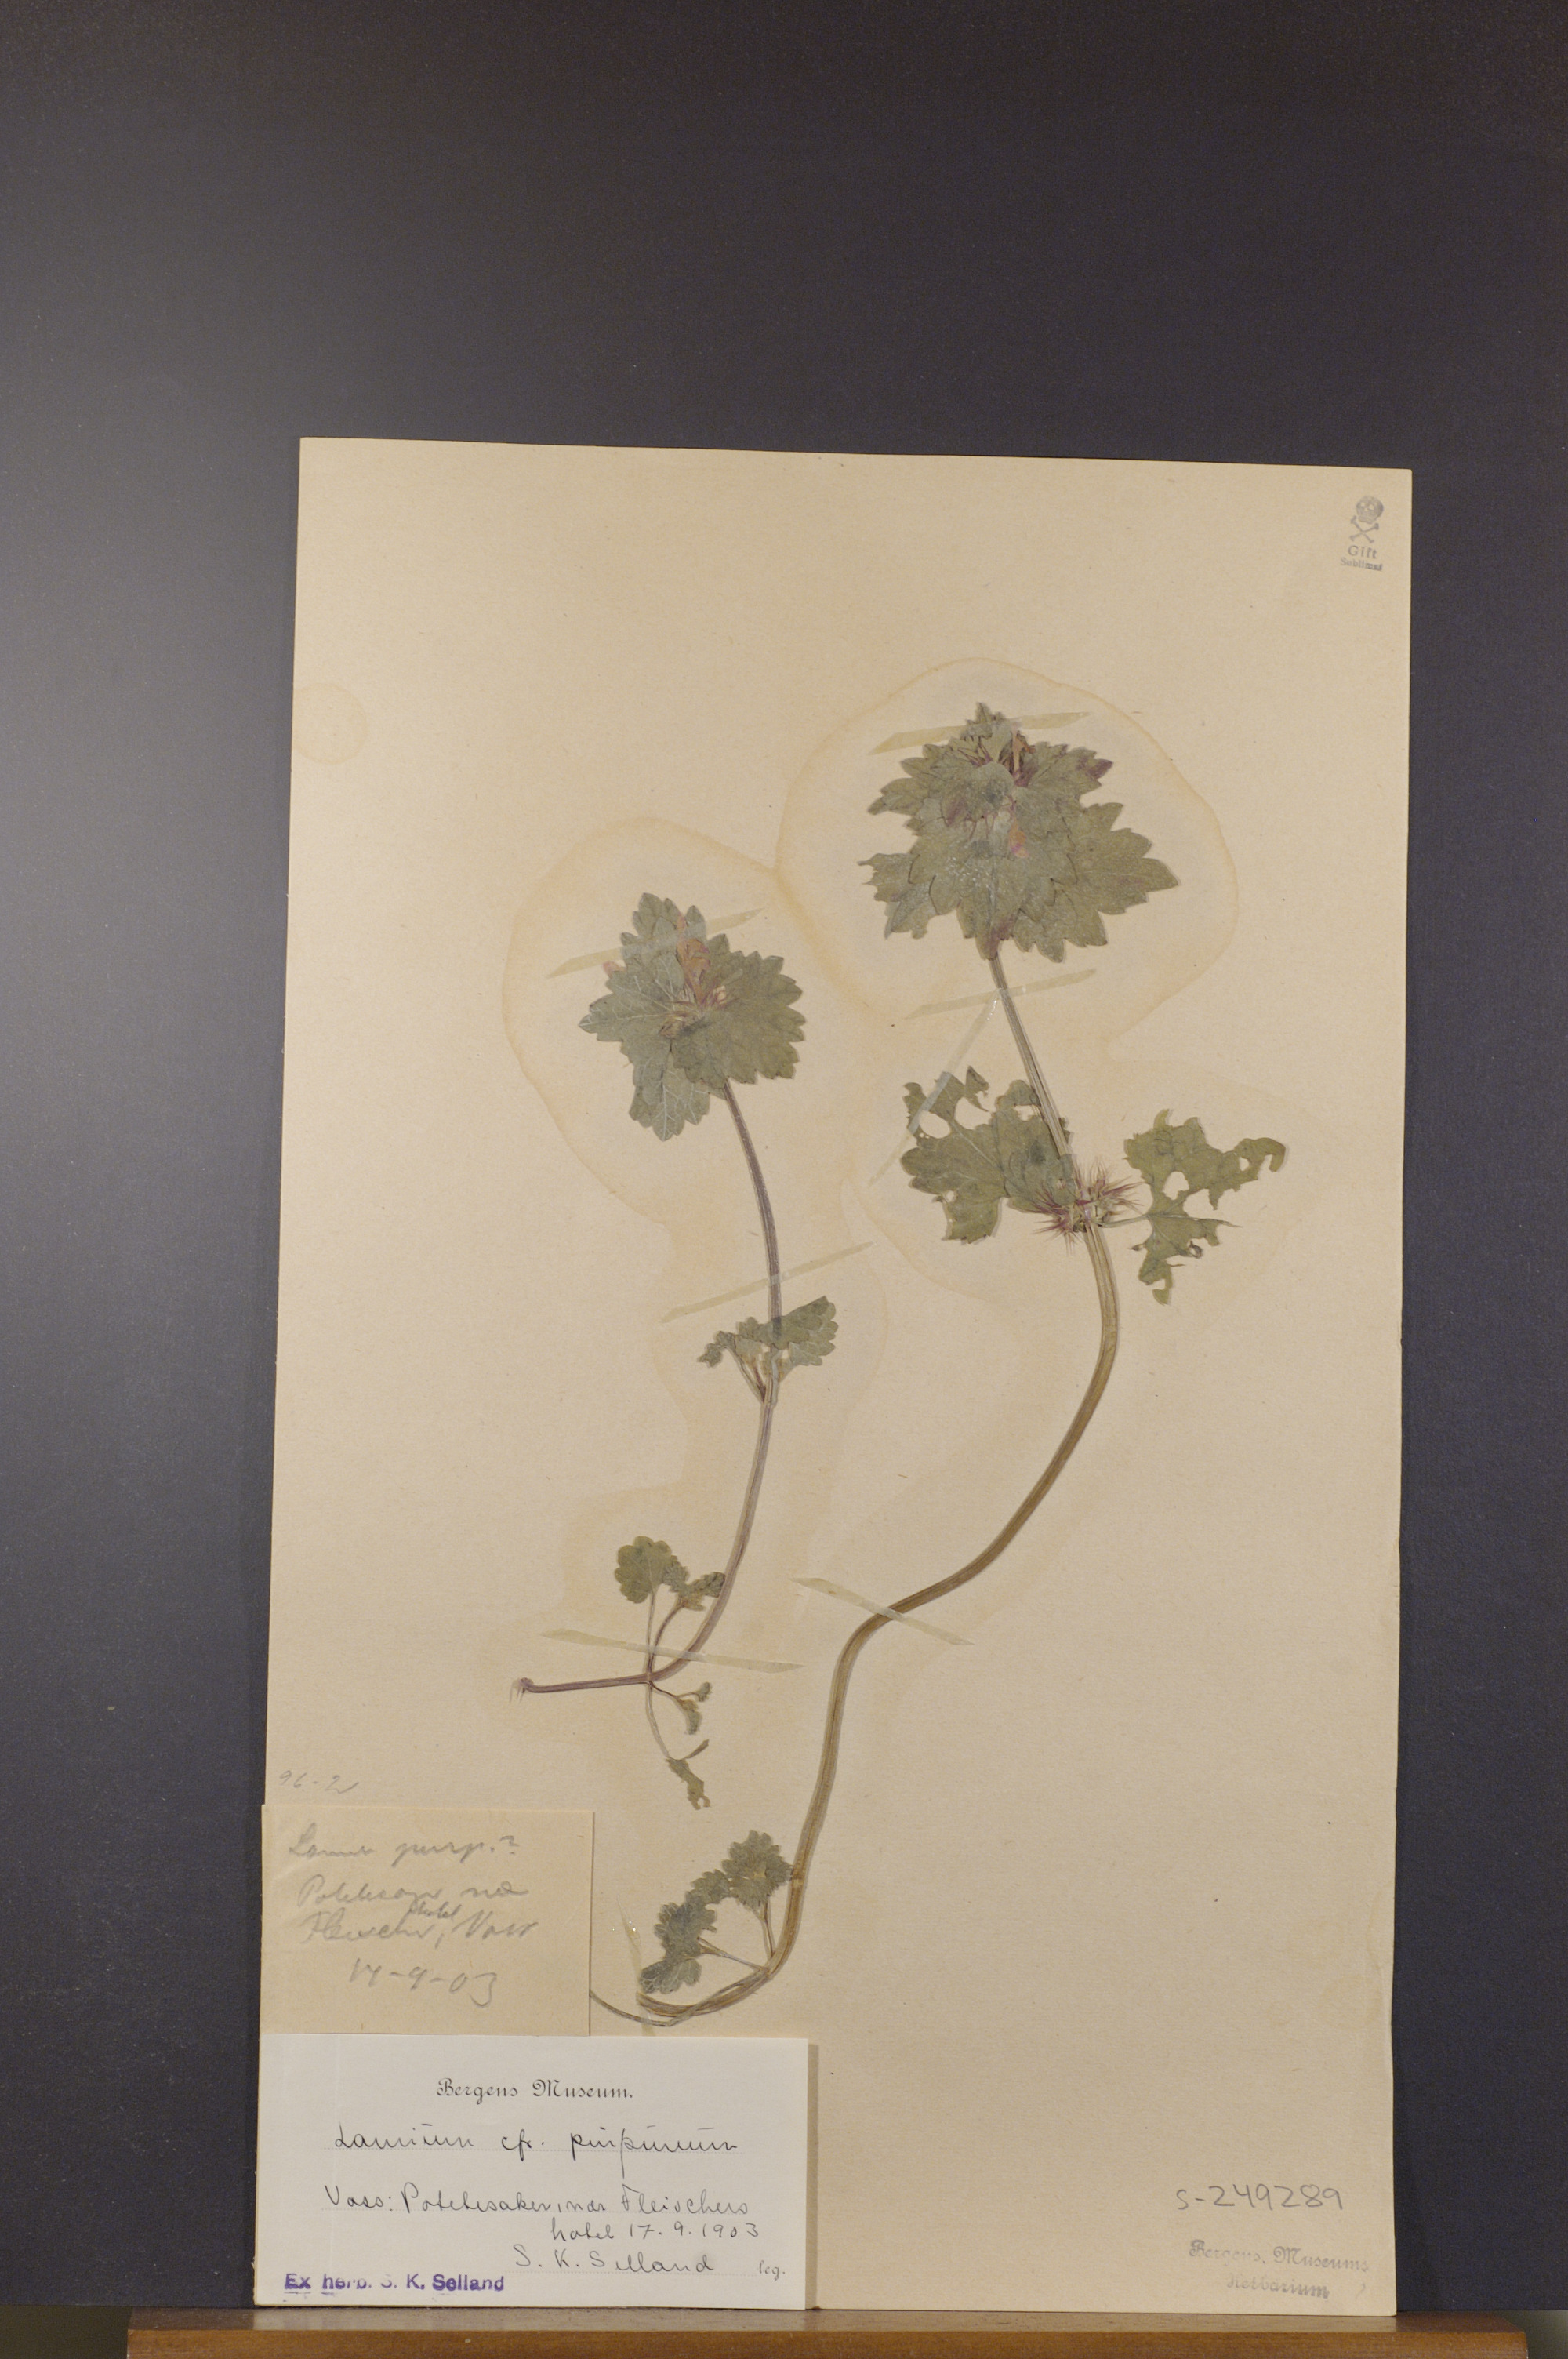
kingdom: Plantae
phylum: Tracheophyta
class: Magnoliopsida
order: Lamiales
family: Lamiaceae
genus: Lamium
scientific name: Lamium purpureum
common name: Red dead-nettle
